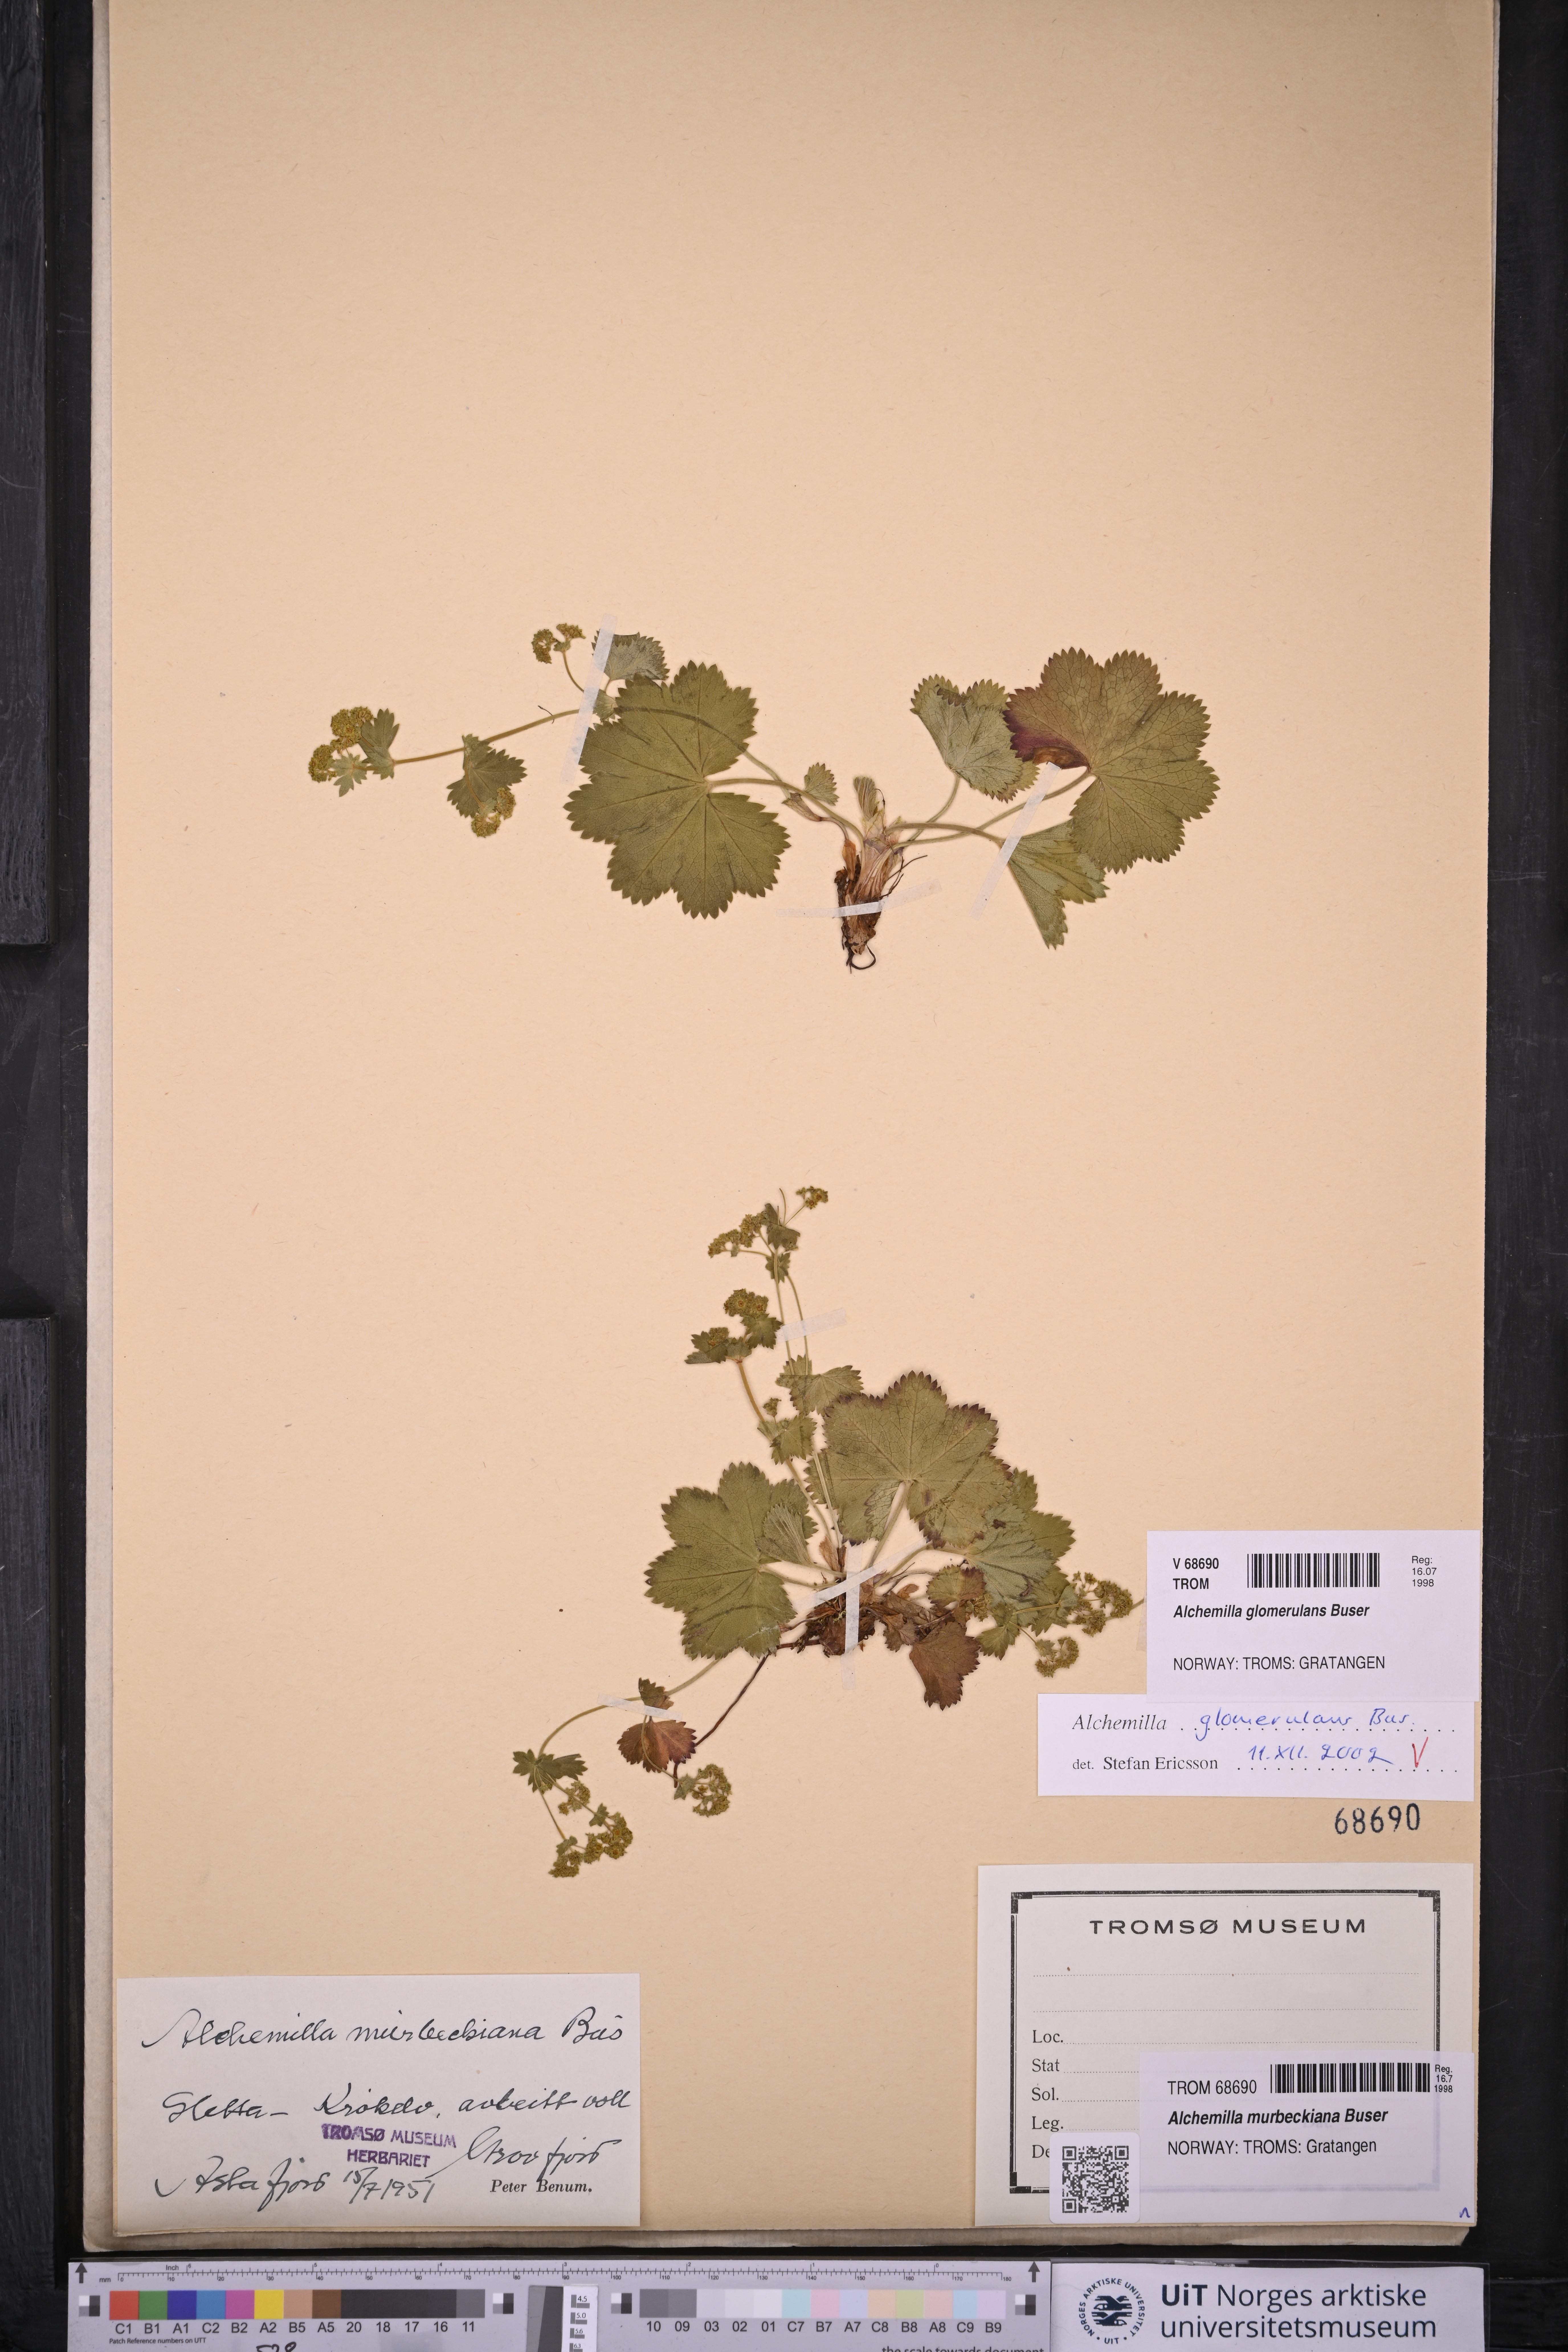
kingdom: Plantae
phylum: Tracheophyta
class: Magnoliopsida
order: Rosales
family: Rosaceae
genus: Alchemilla
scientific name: Alchemilla glomerulans
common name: Clustered lady's mantle
